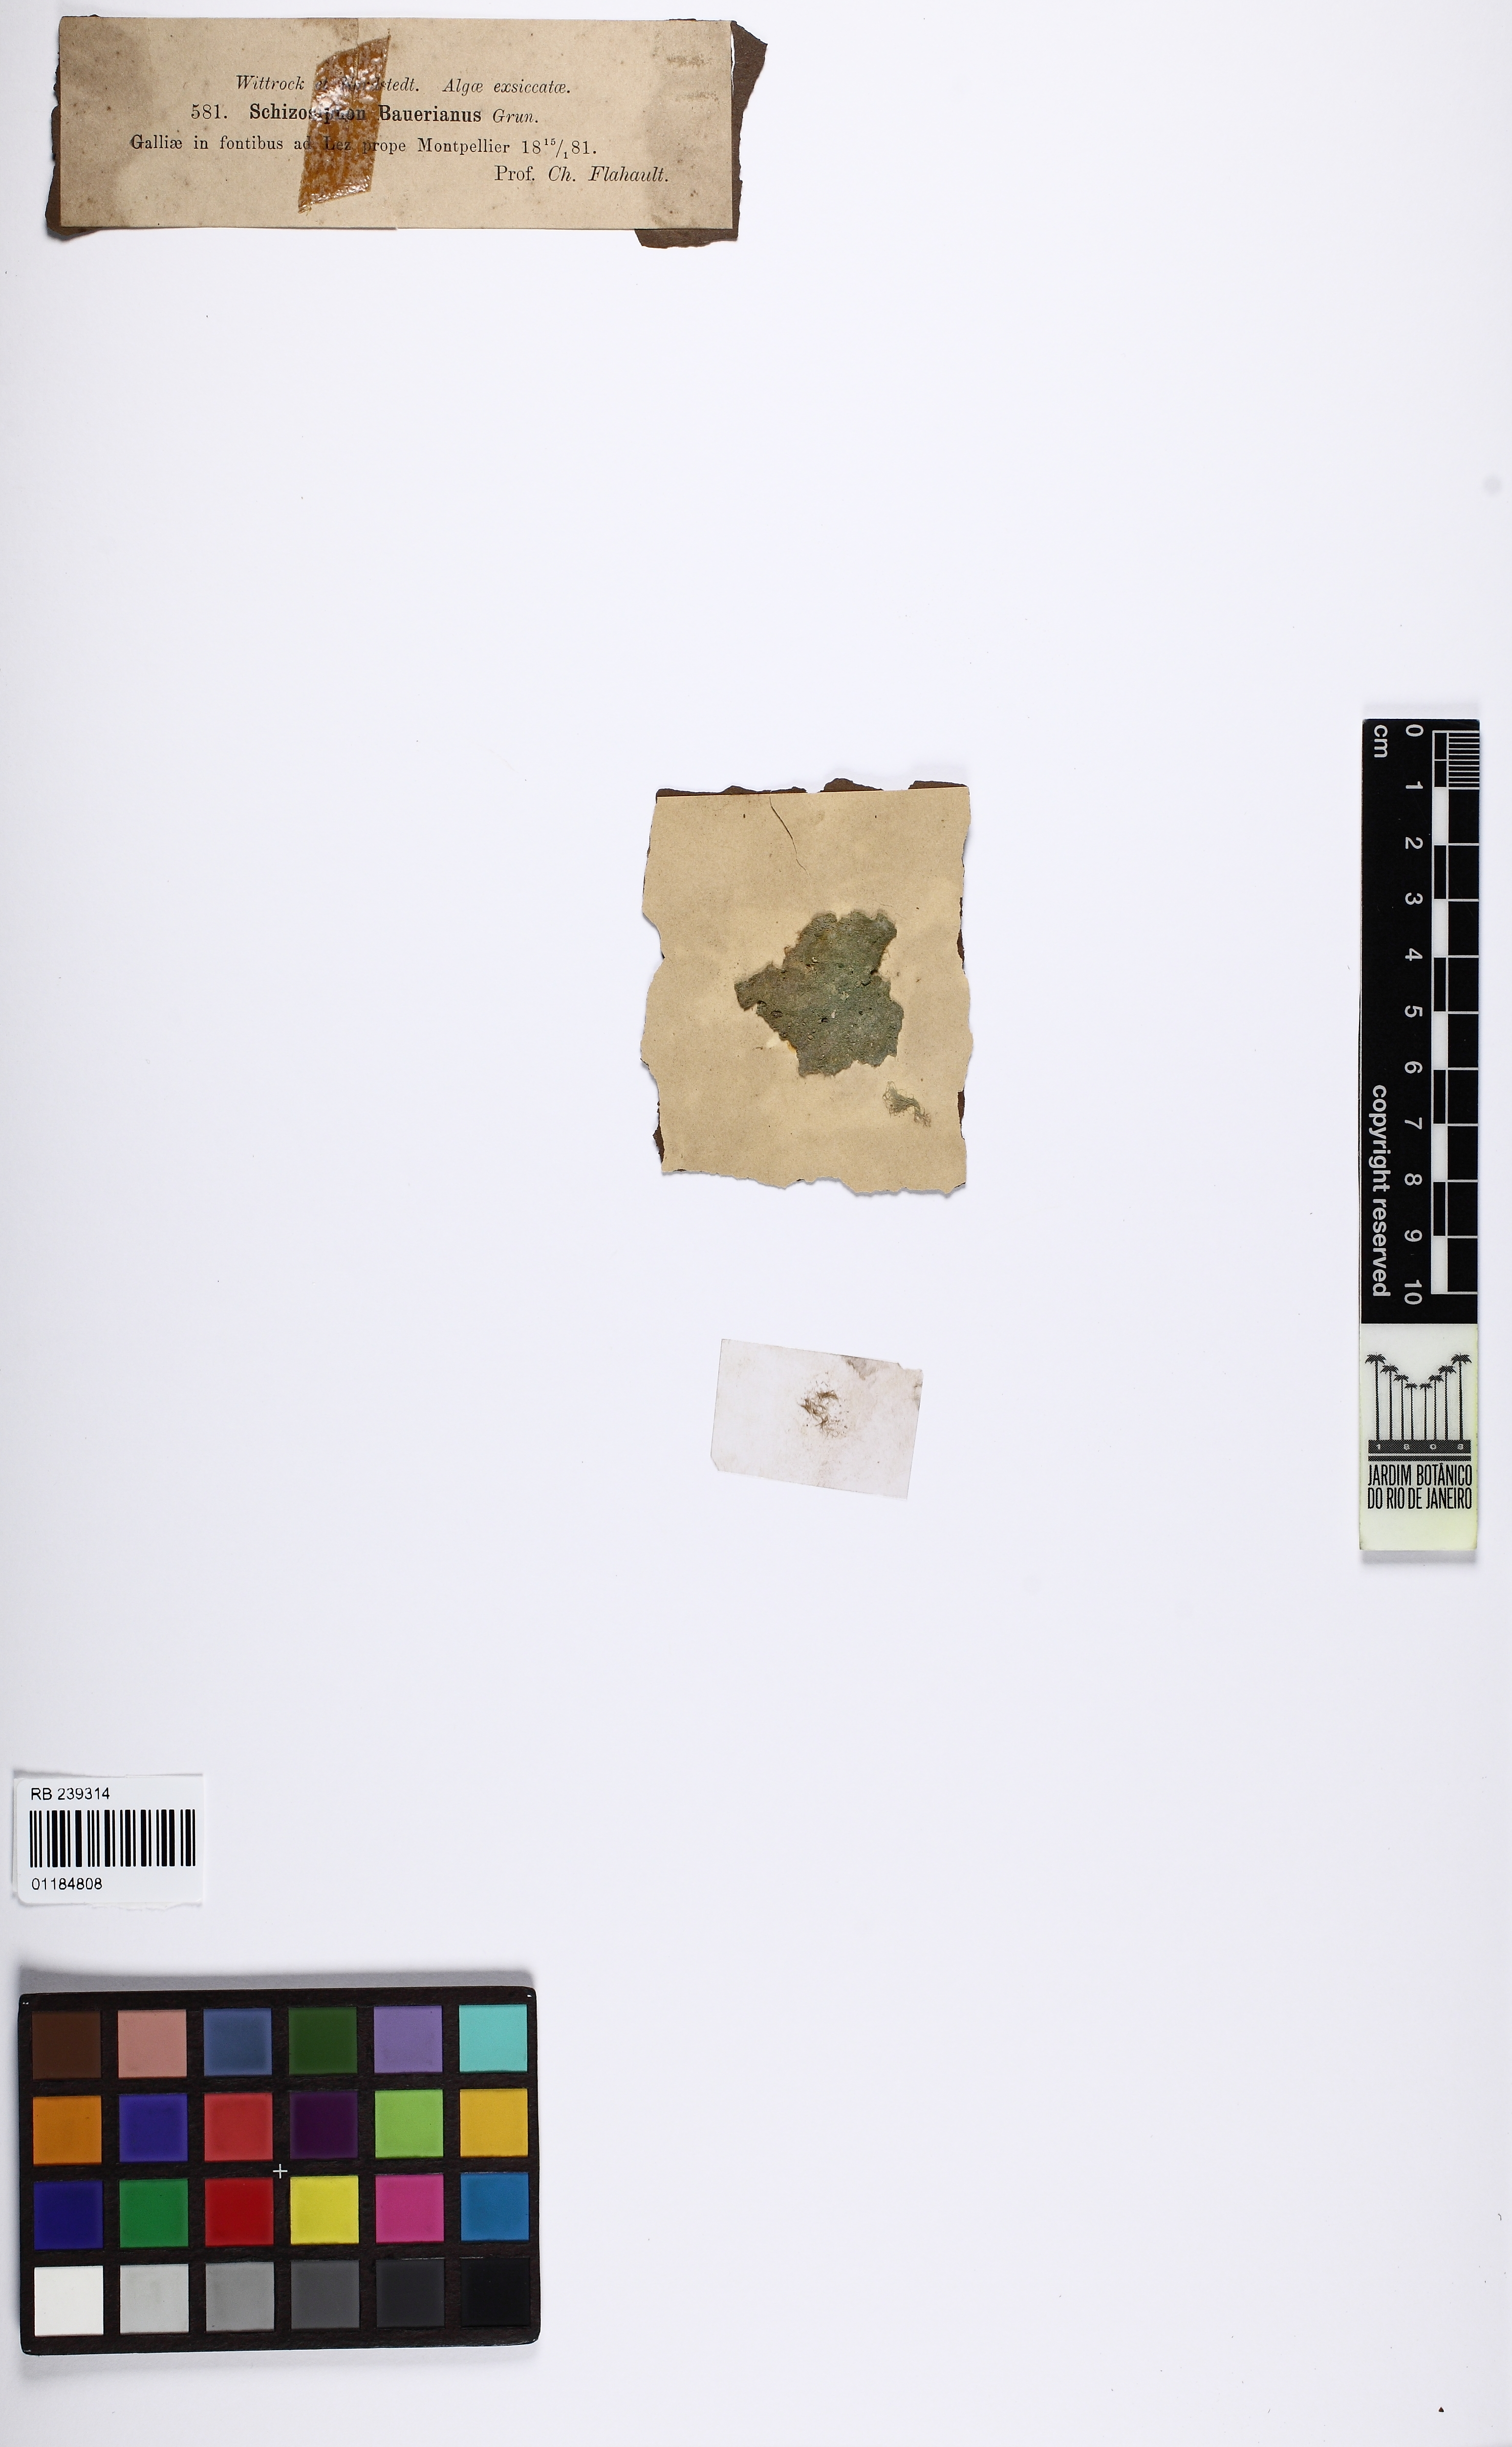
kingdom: Bacteria
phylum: Cyanobacteria
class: Cyanobacteriia
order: Cyanobacteriales
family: Rivulariaceae
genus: Dichothrix
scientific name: Dichothrix baueriana
